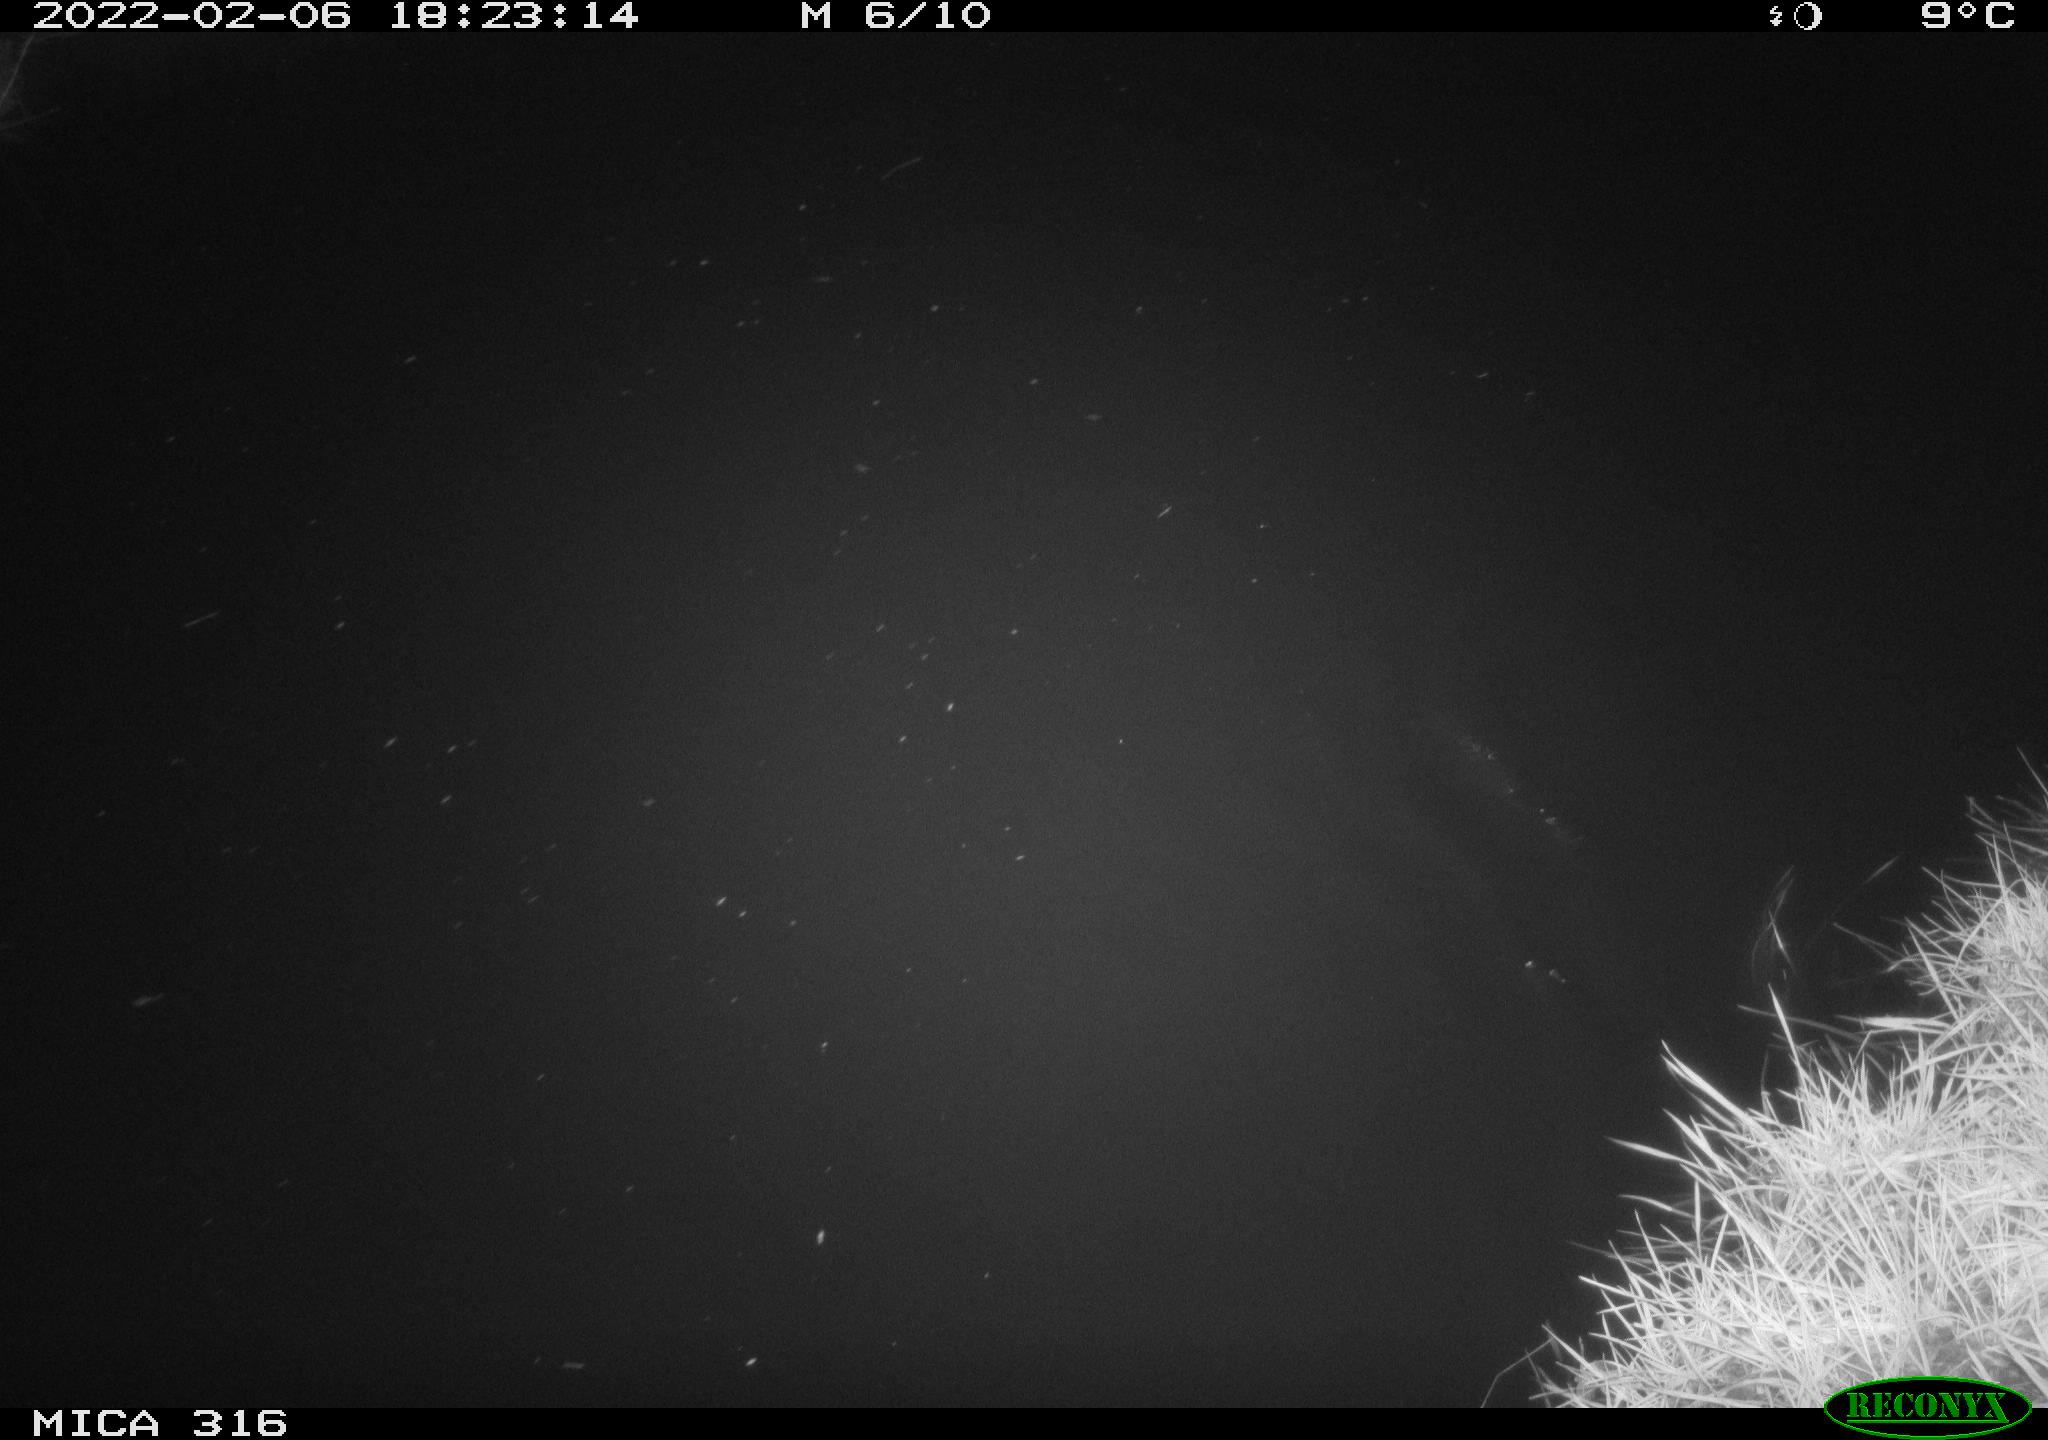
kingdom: Animalia
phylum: Chordata
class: Aves
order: Gruiformes
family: Rallidae
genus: Gallinula
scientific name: Gallinula chloropus
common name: Common moorhen
